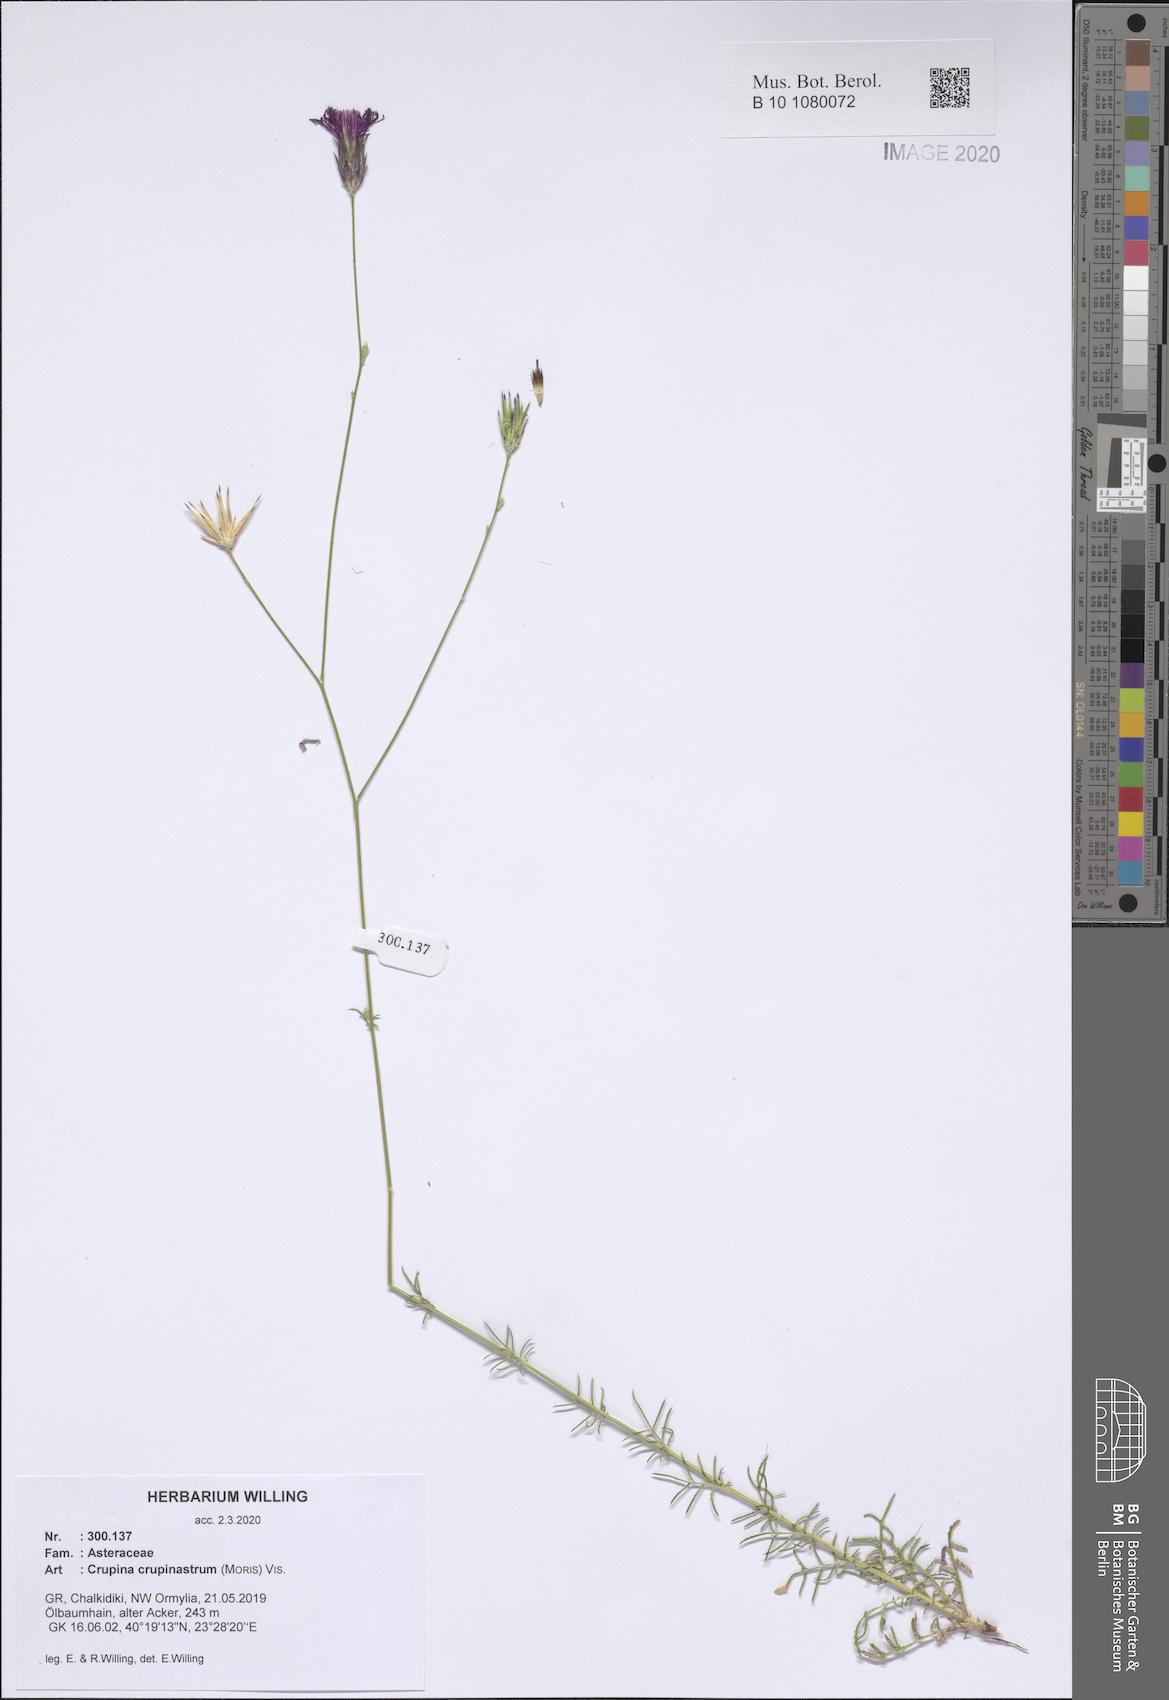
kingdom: Plantae
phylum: Tracheophyta
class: Magnoliopsida
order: Asterales
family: Asteraceae
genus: Crupina
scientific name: Crupina crupinastrum
